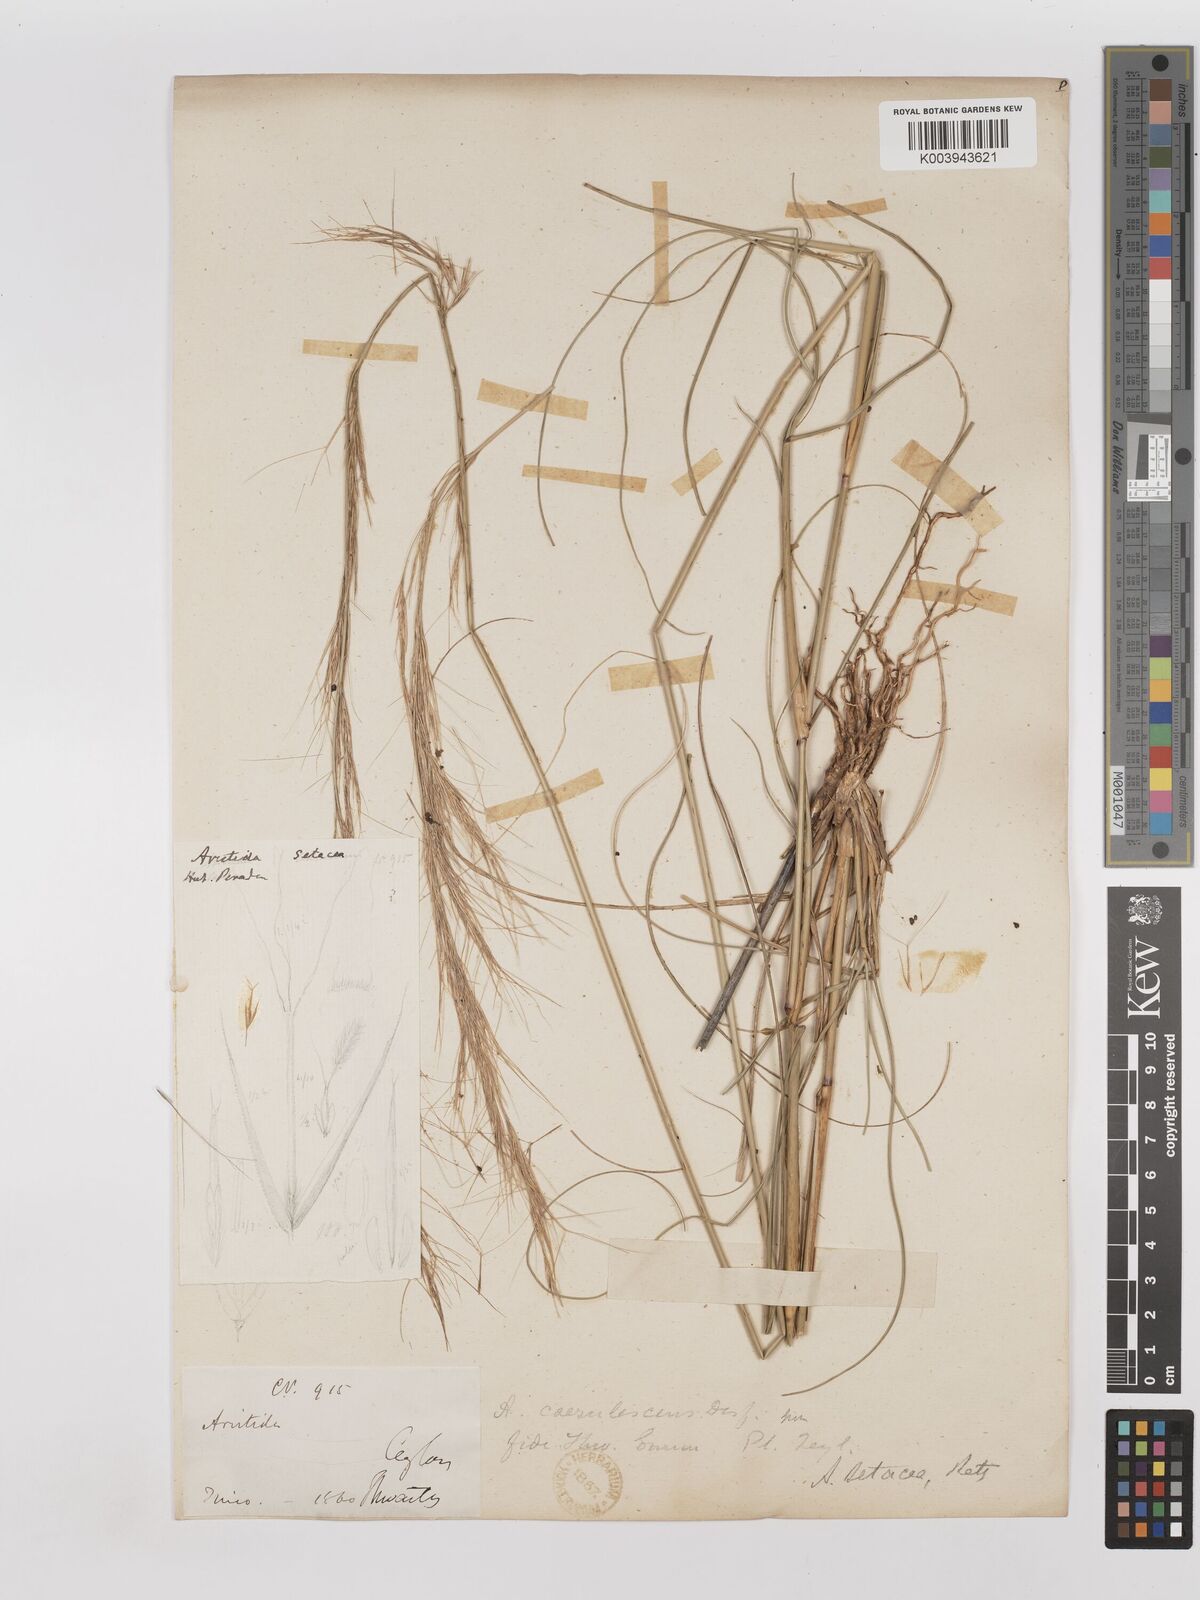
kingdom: Plantae
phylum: Tracheophyta
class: Liliopsida
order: Poales
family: Poaceae
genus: Aristida
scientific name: Aristida setacea
